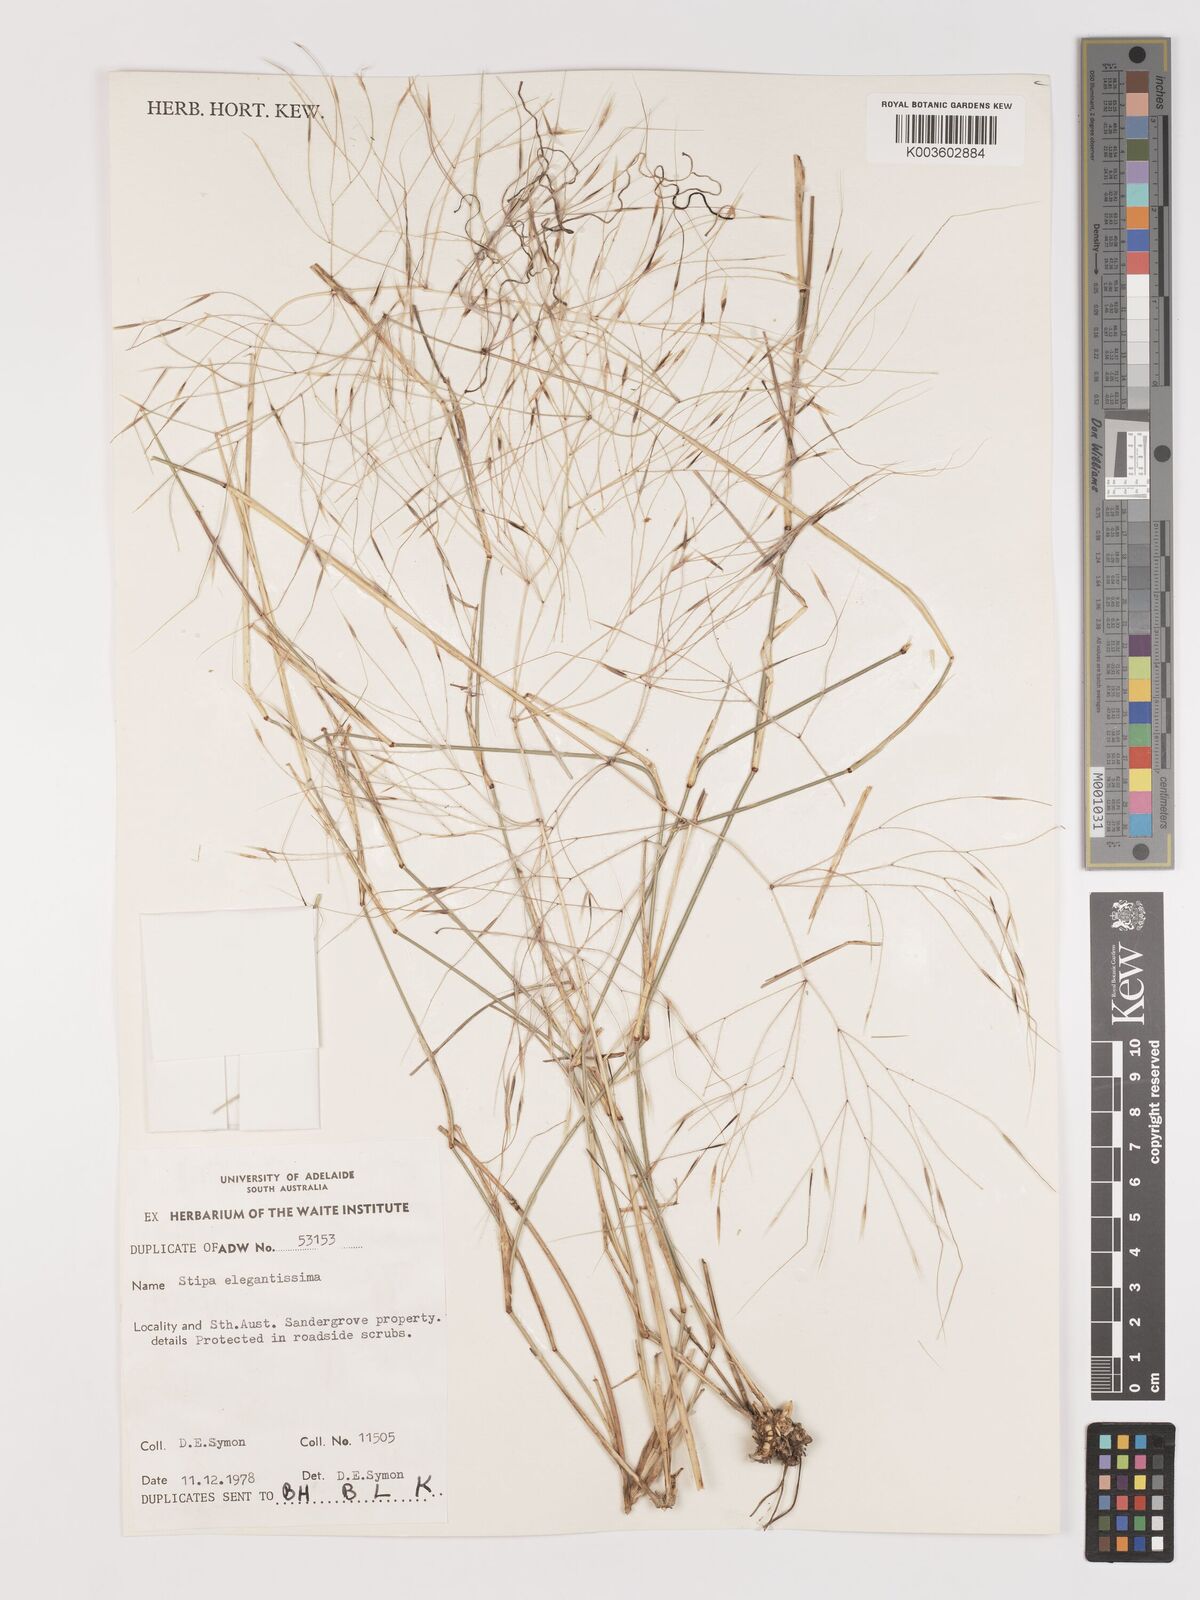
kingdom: Plantae
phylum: Tracheophyta
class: Liliopsida
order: Poales
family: Poaceae
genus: Austrostipa
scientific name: Austrostipa elegantissima
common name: Feather spear grass
